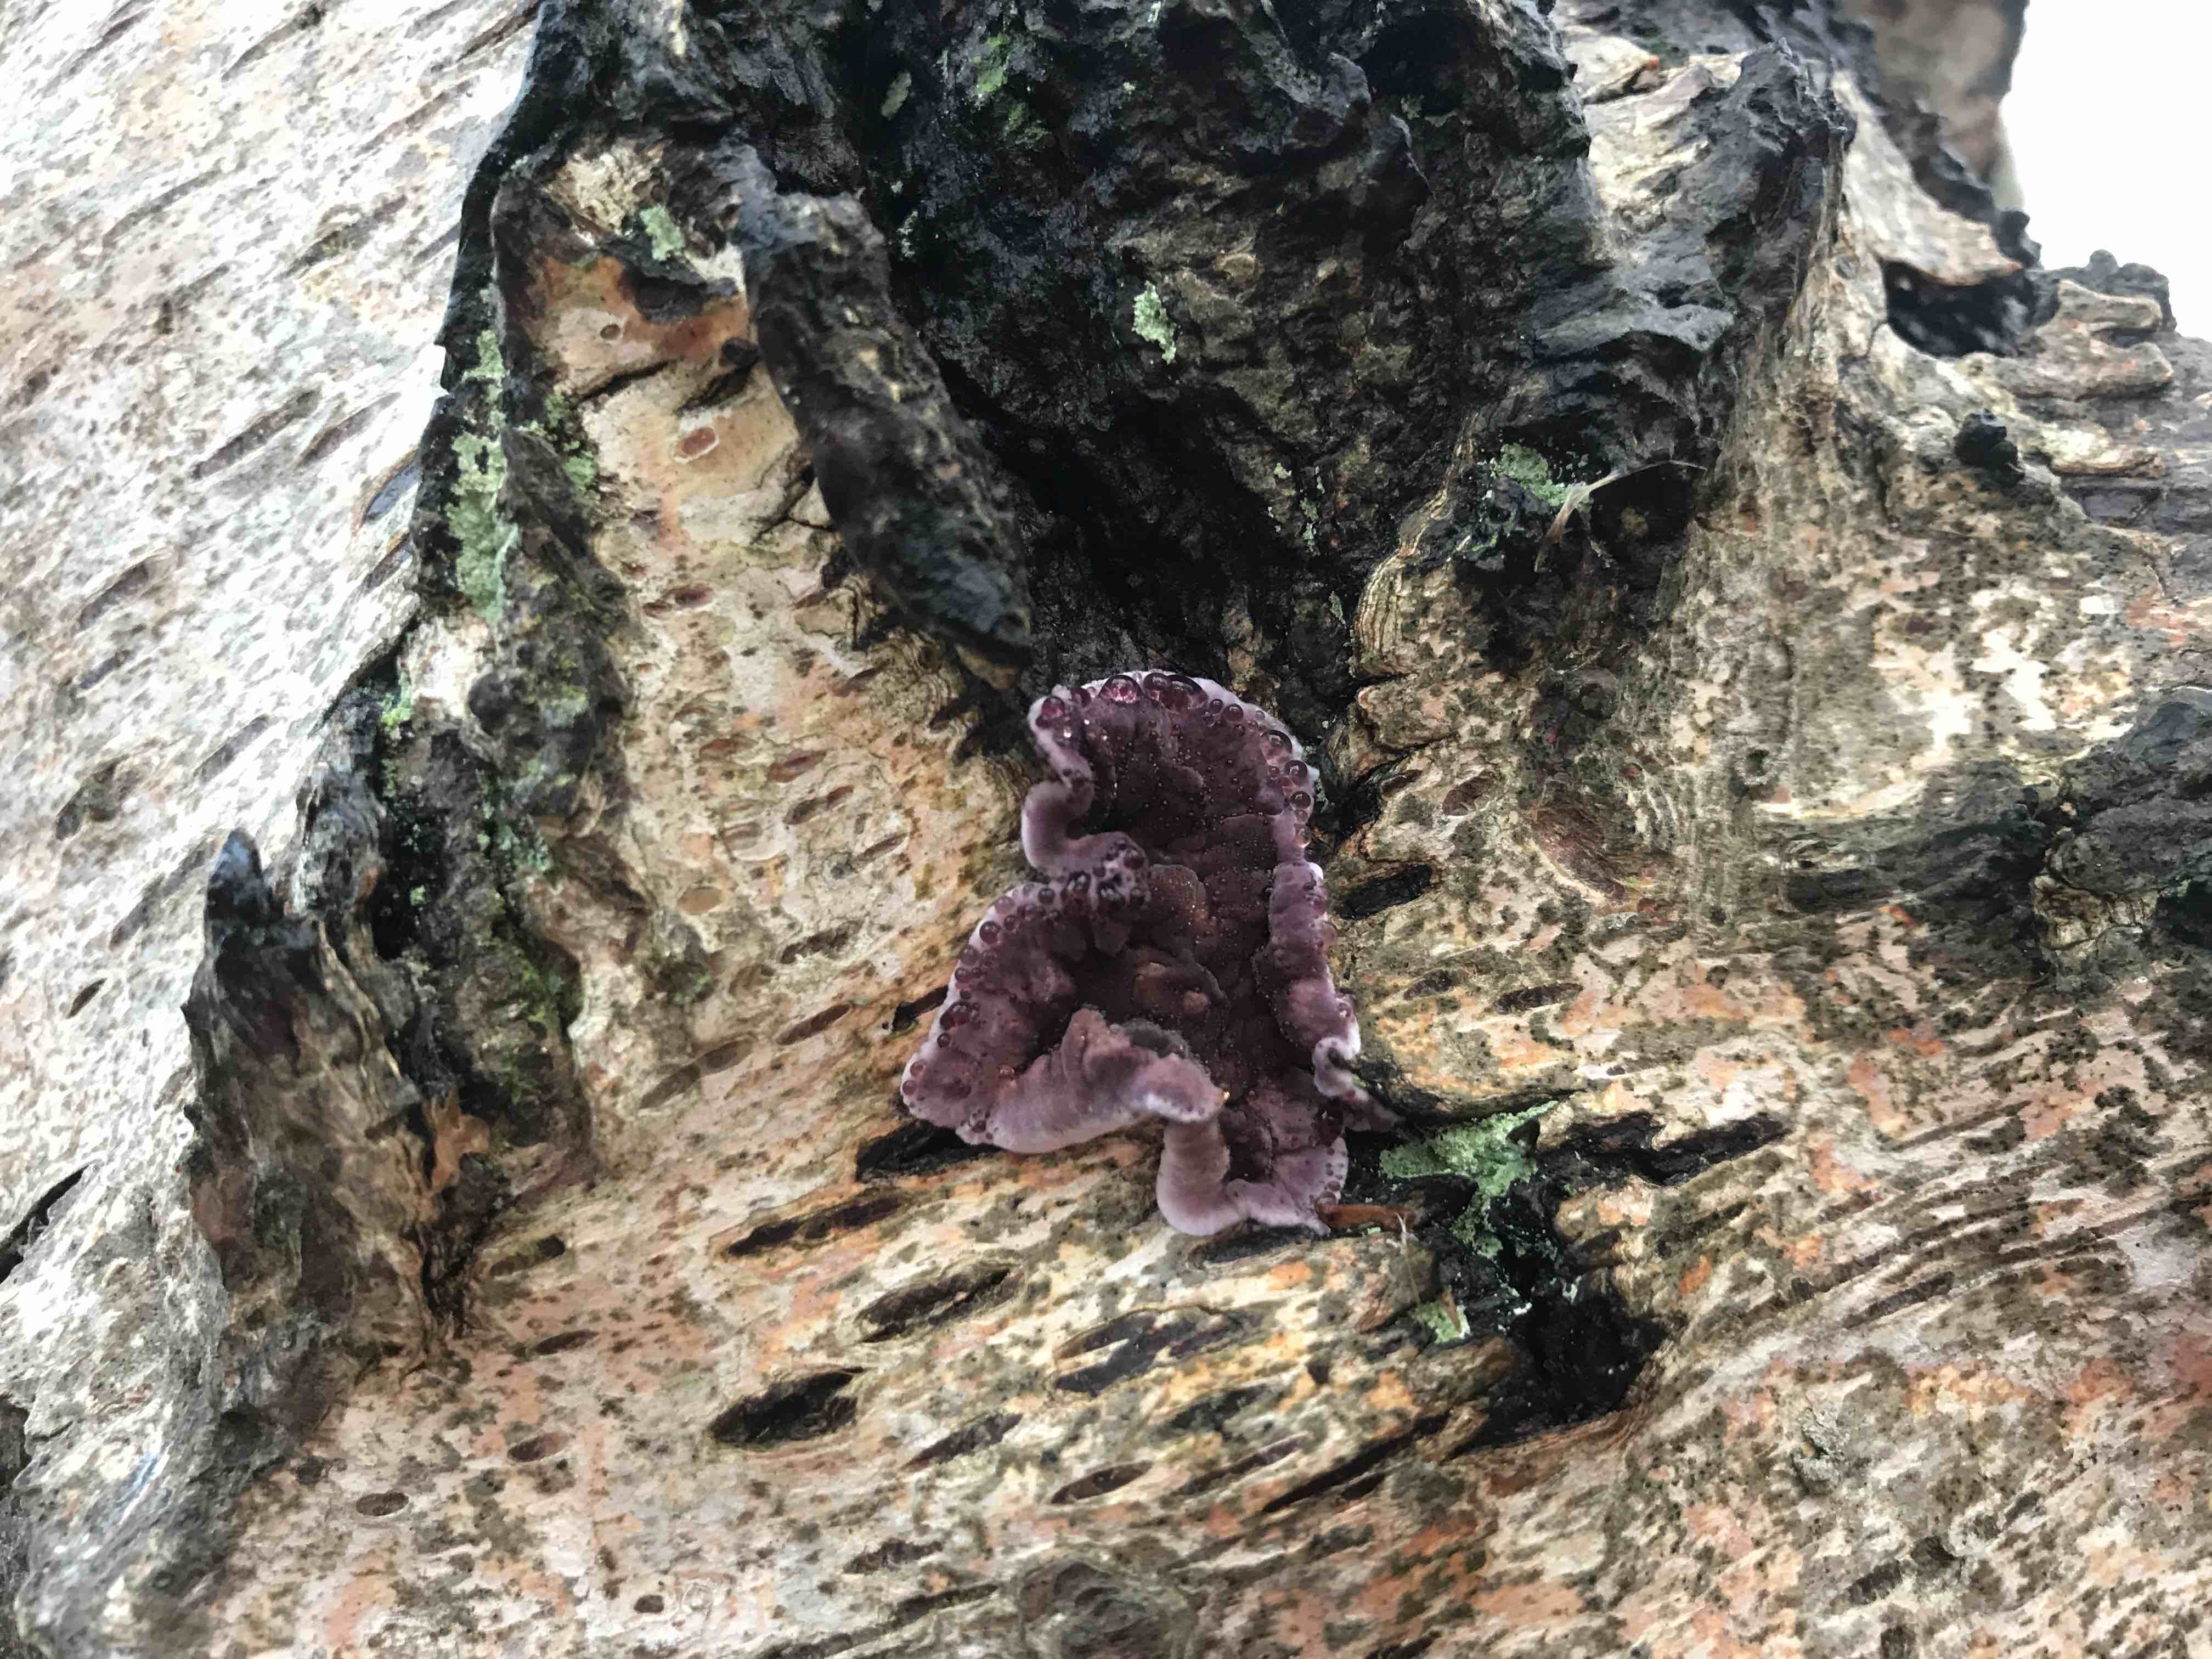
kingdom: Fungi
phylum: Basidiomycota
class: Agaricomycetes
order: Agaricales
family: Cyphellaceae
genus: Chondrostereum
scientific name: Chondrostereum purpureum
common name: purpurlædersvamp
